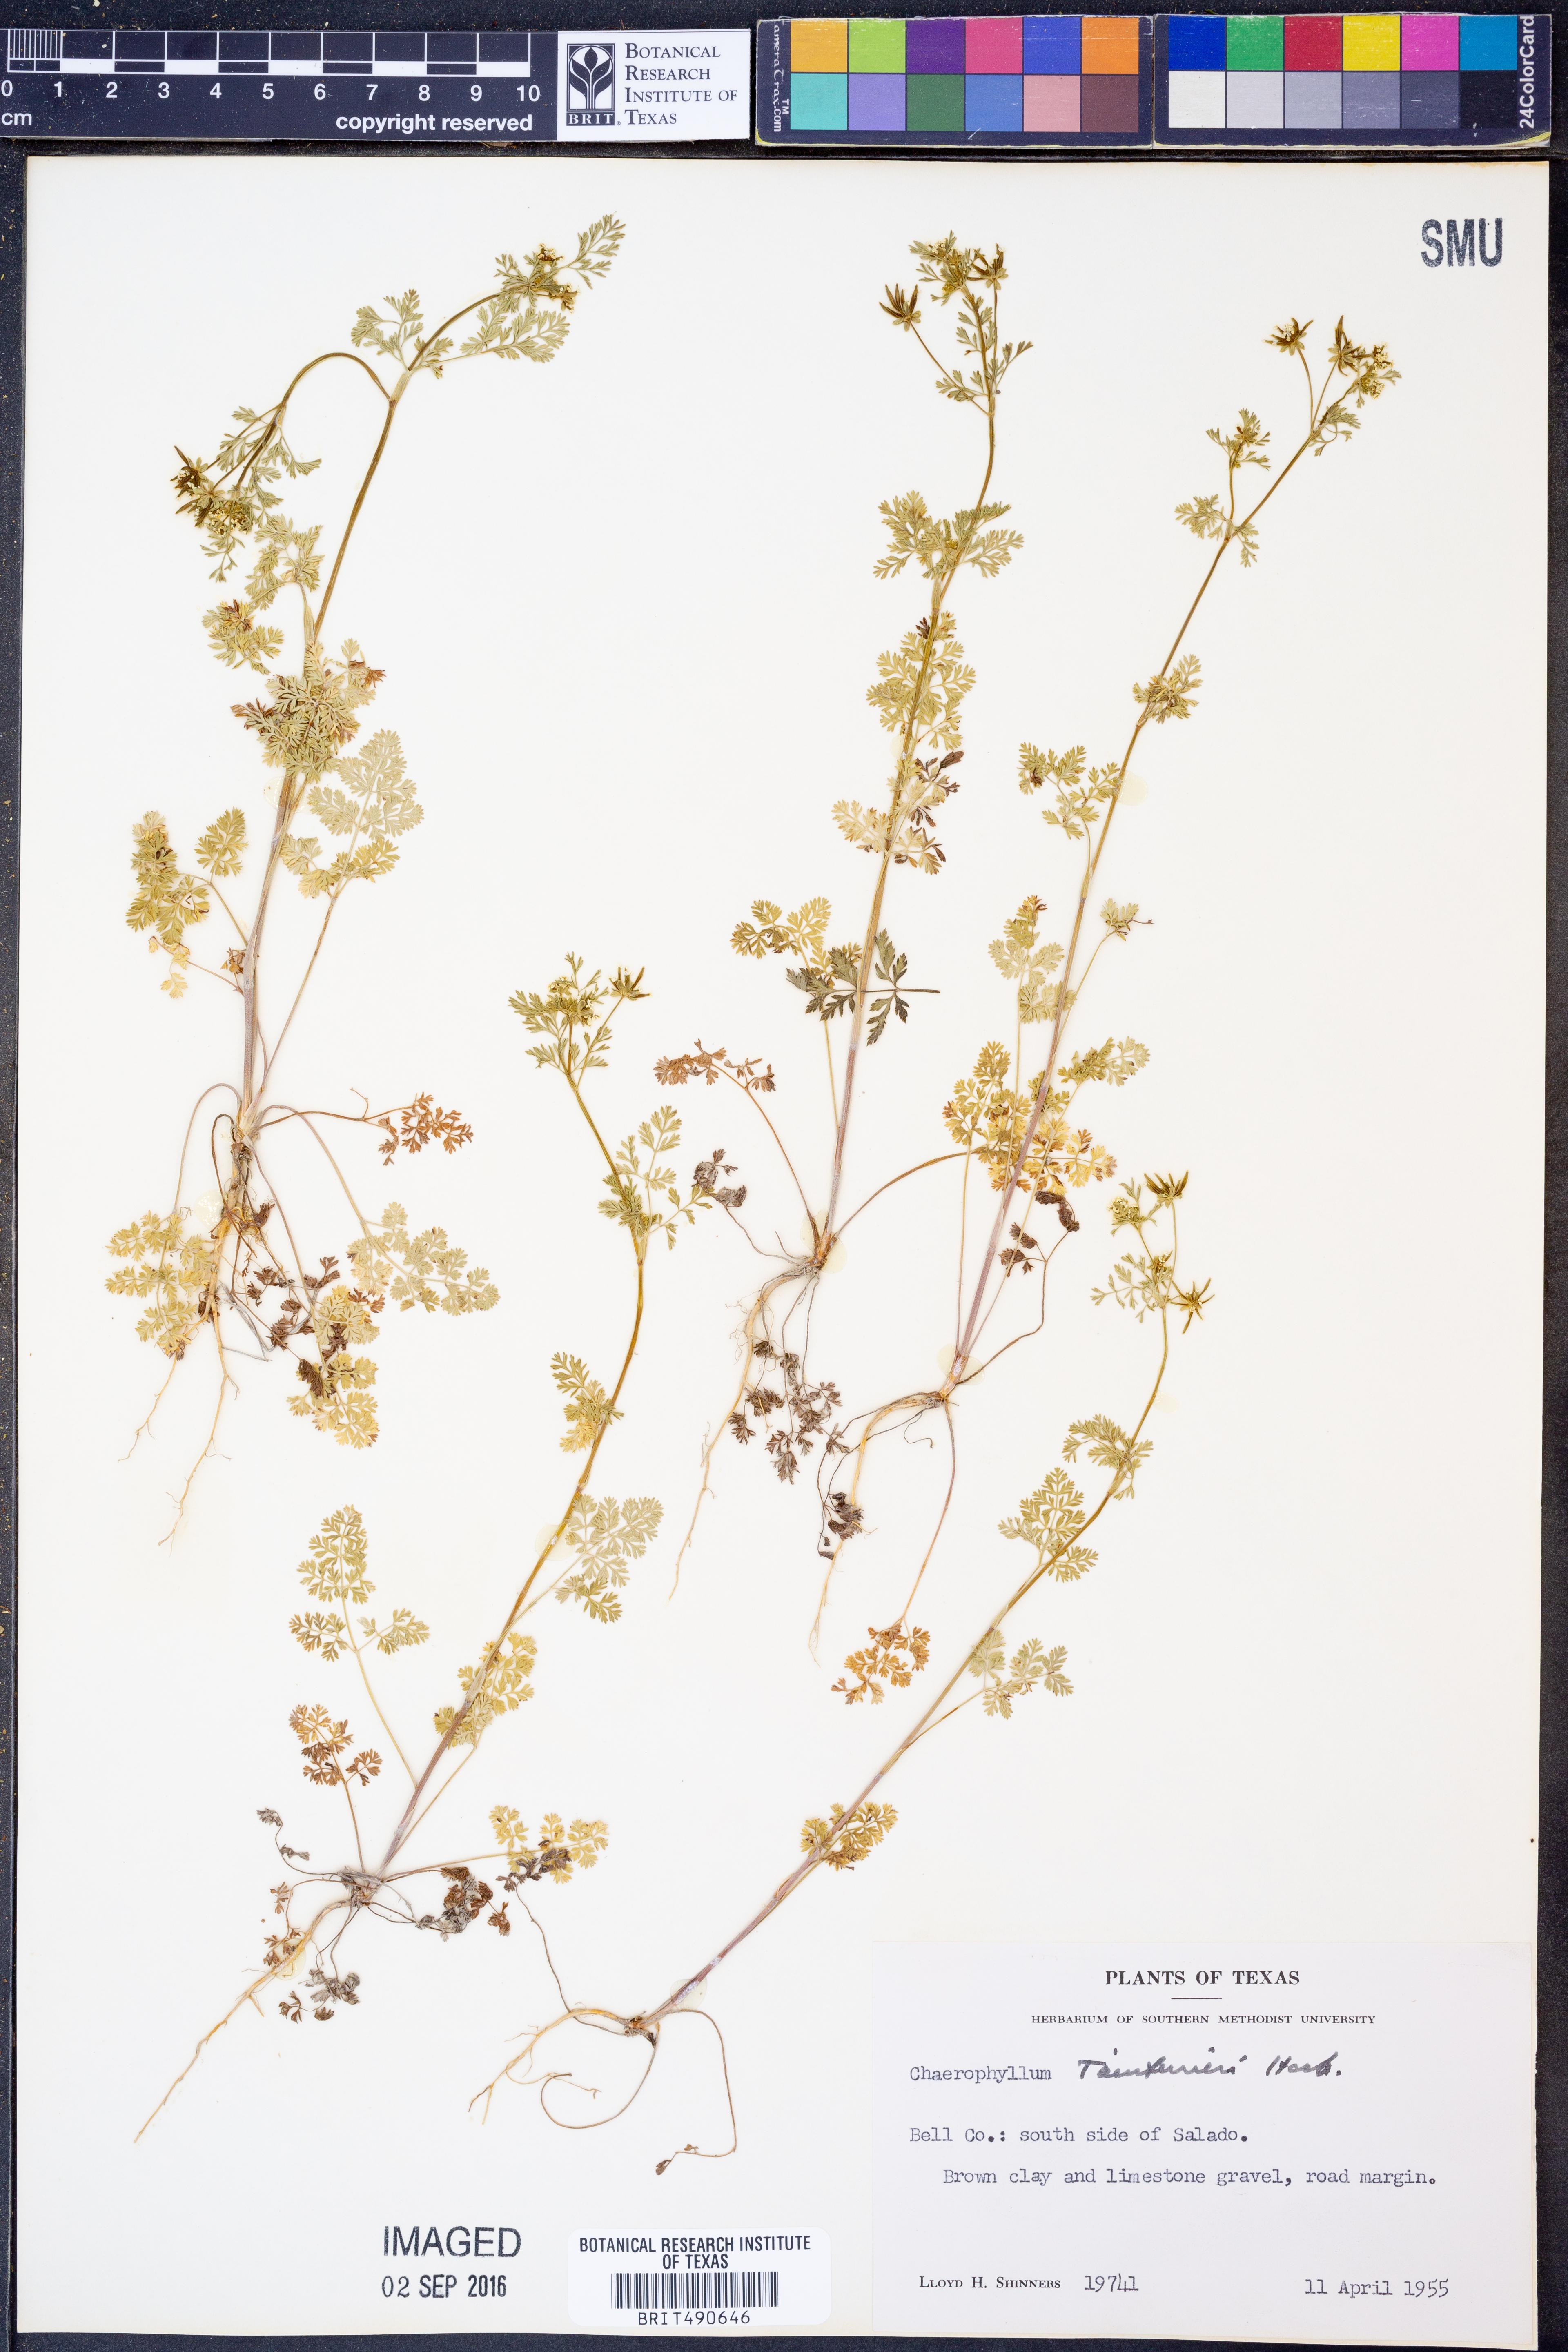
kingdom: Plantae
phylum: Tracheophyta
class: Magnoliopsida
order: Apiales
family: Apiaceae
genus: Chaerophyllum
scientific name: Chaerophyllum tainturieri
